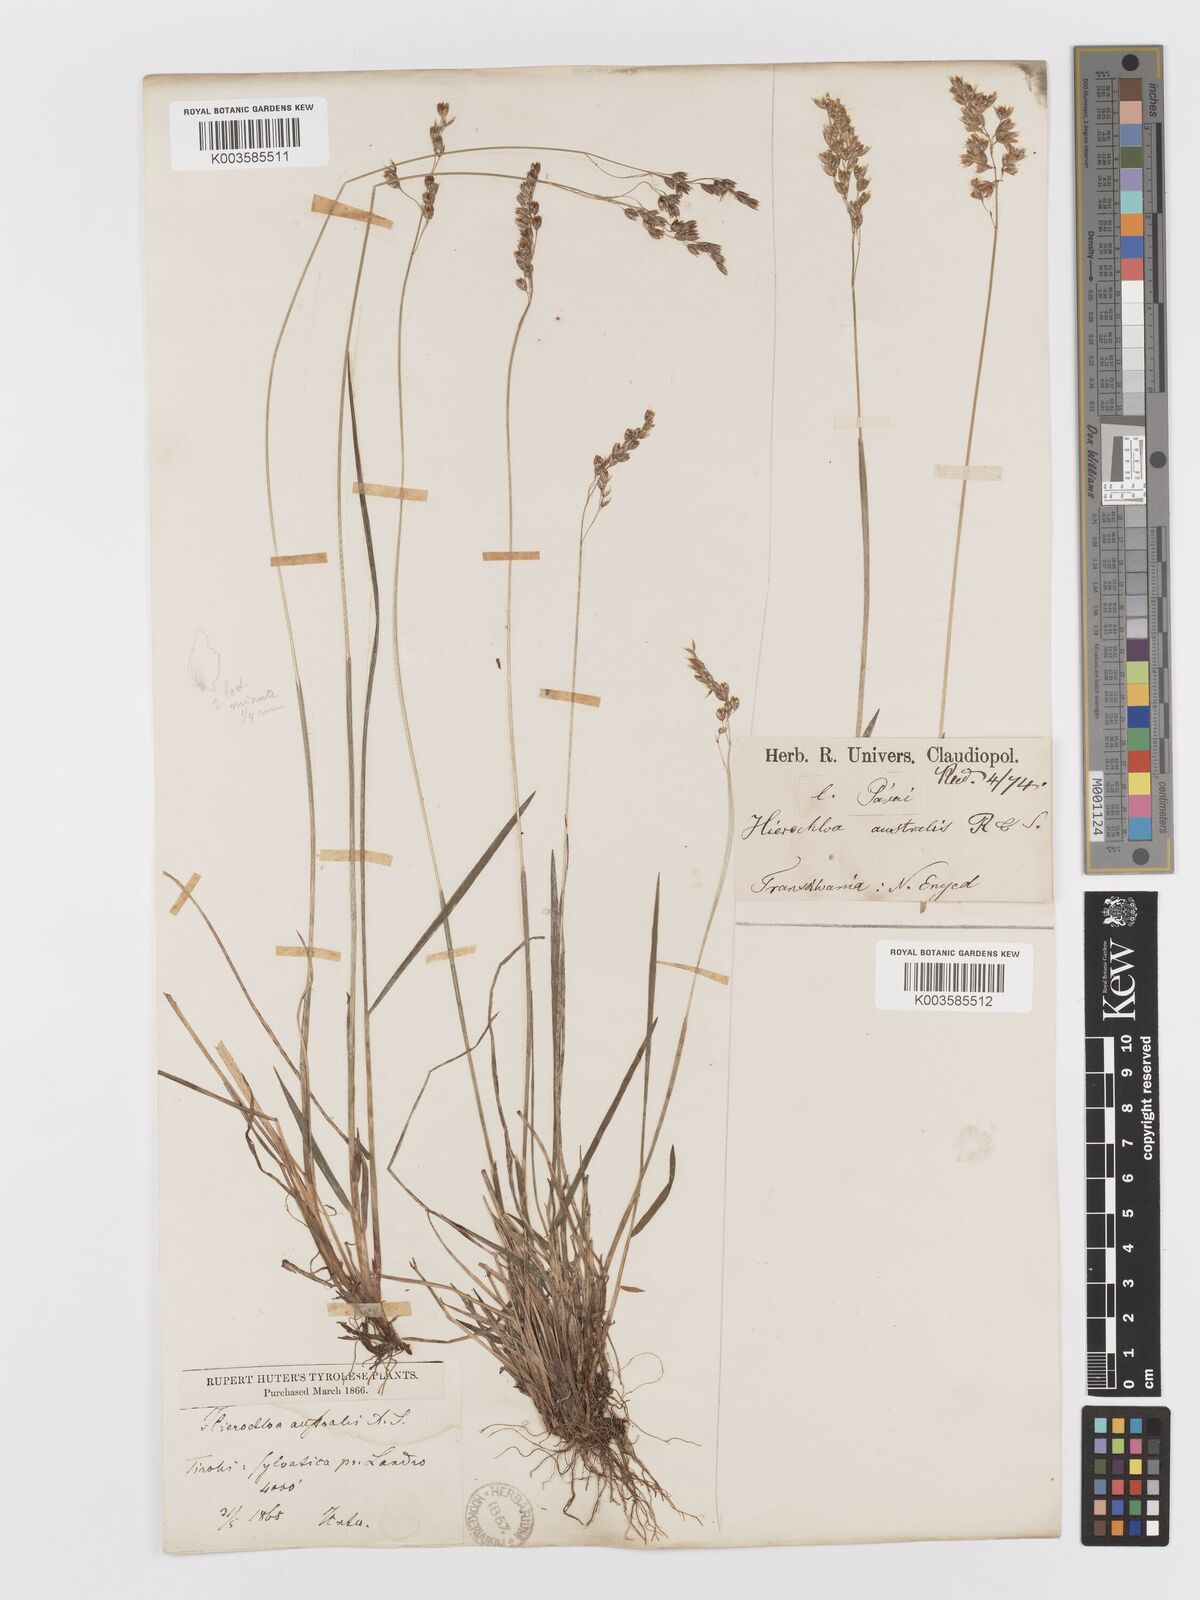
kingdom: Plantae
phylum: Tracheophyta
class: Liliopsida
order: Poales
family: Poaceae
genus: Anthoxanthum
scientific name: Anthoxanthum australe
